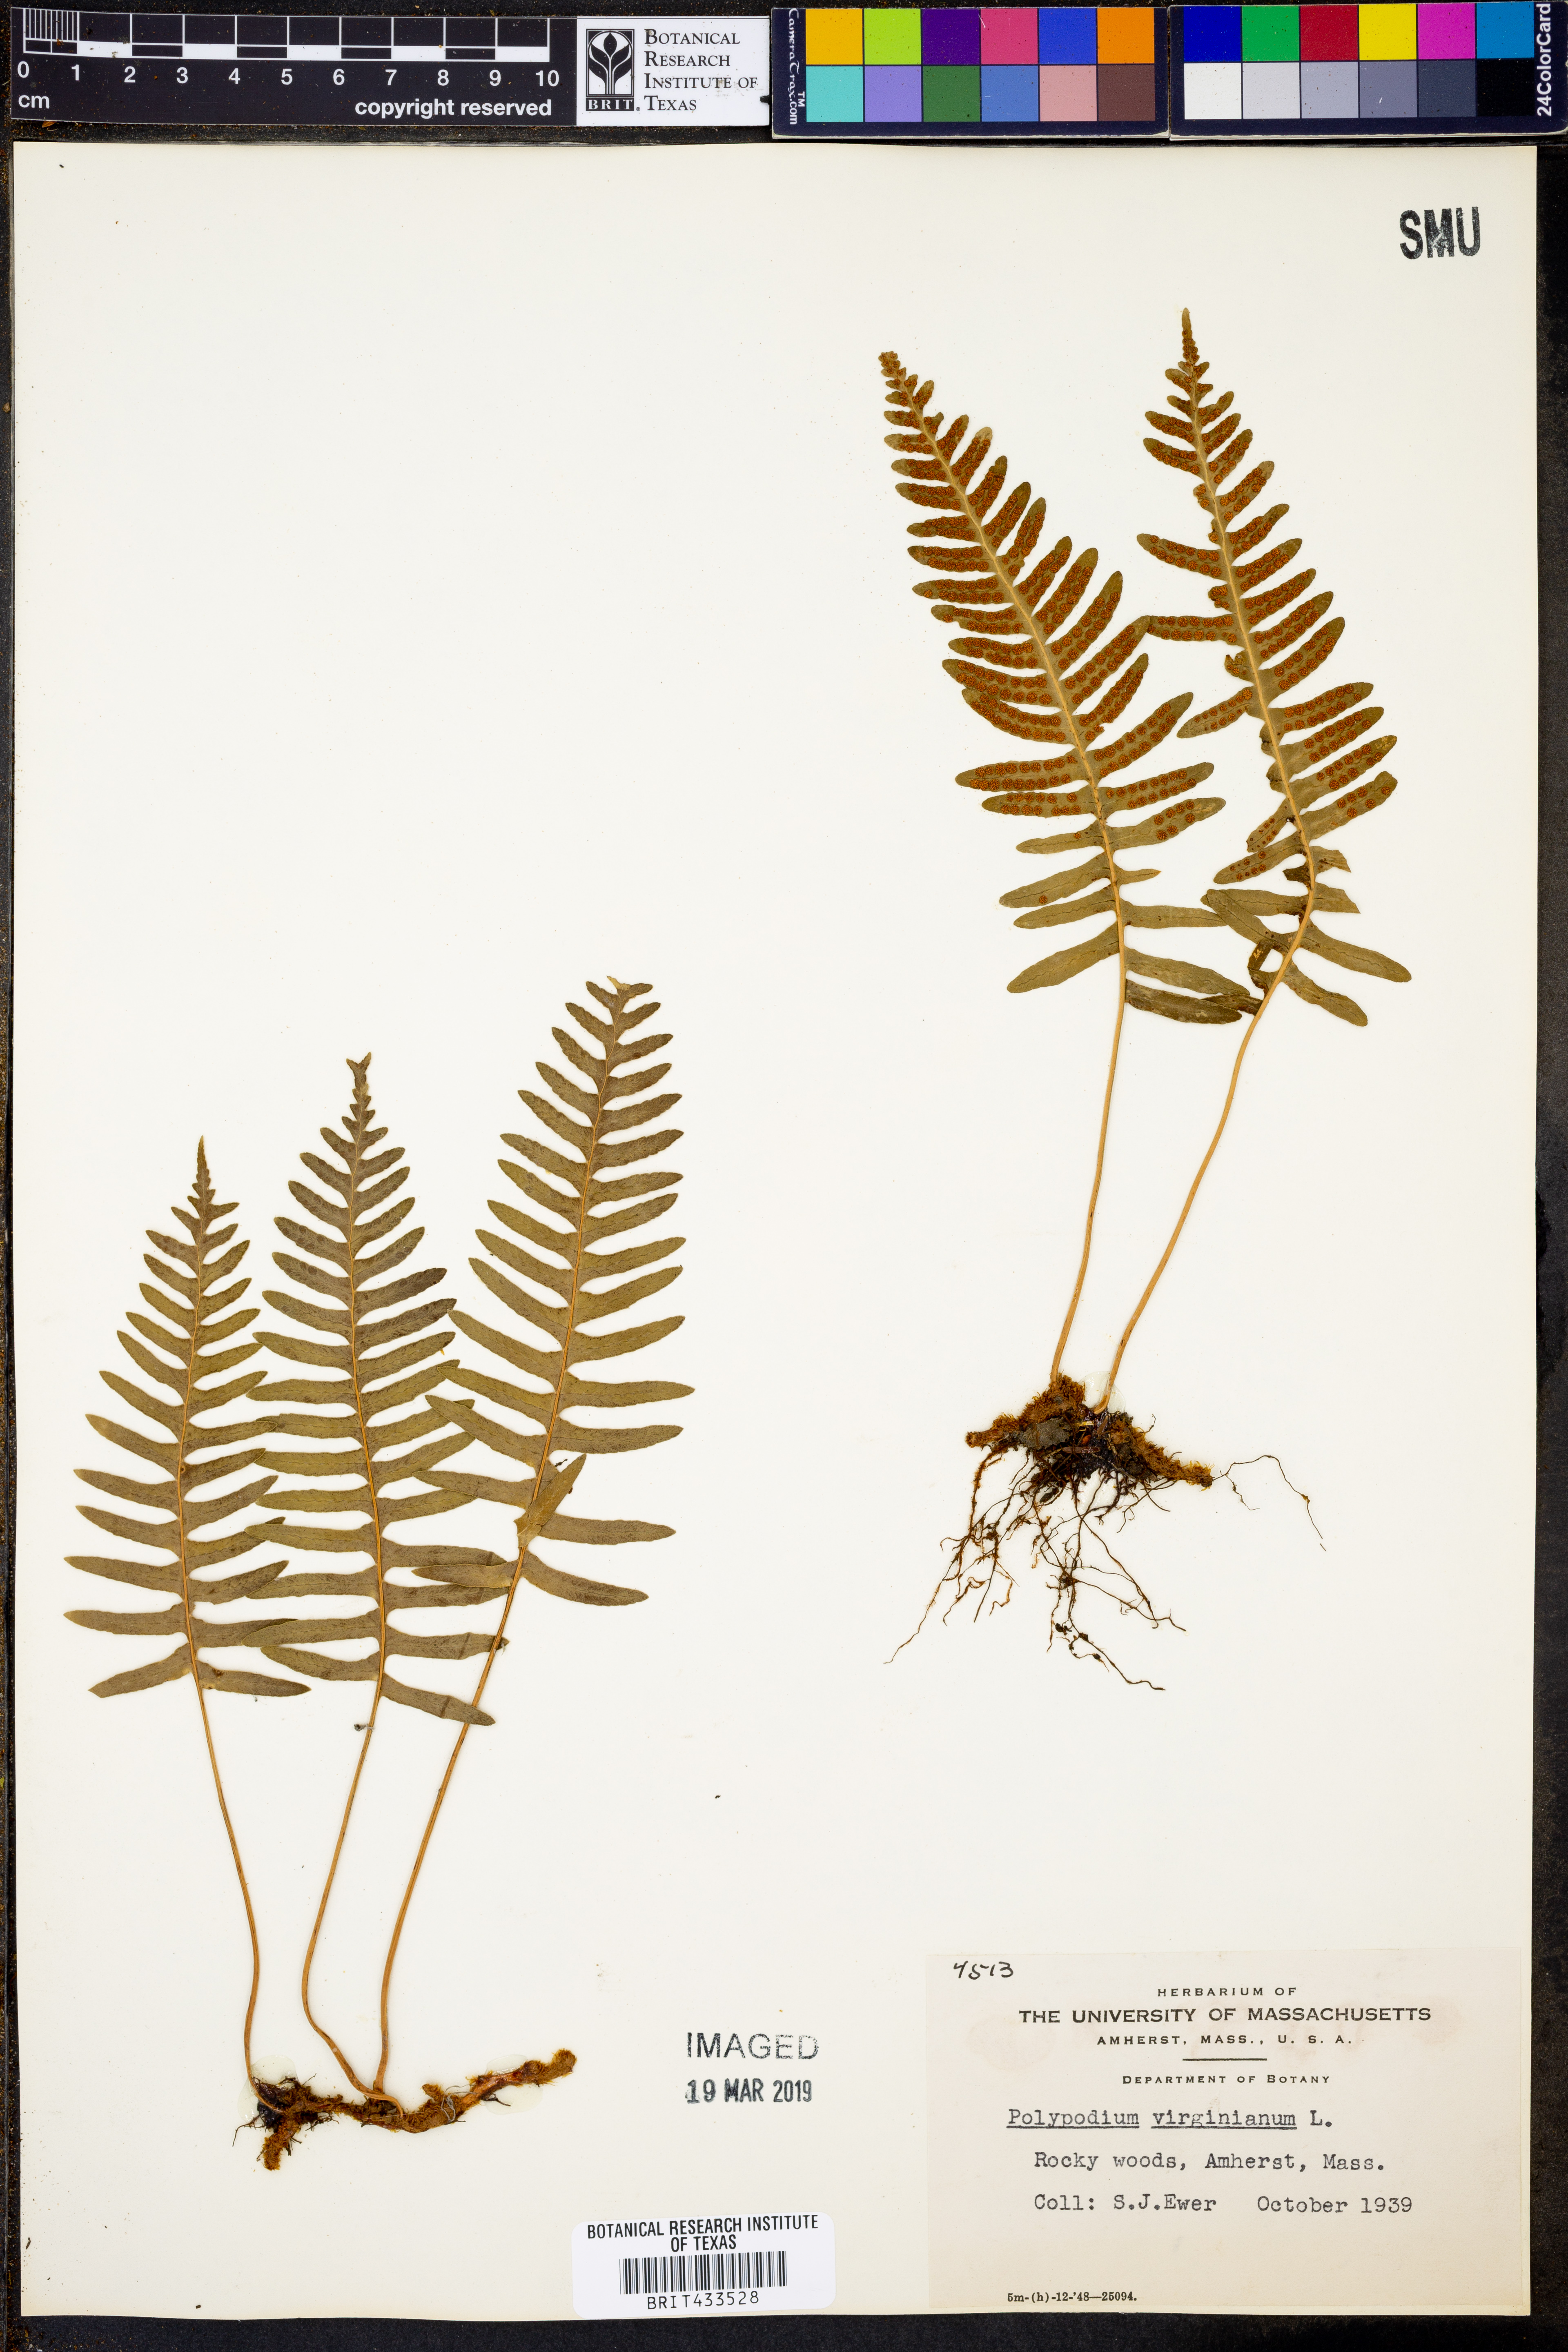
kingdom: Plantae
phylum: Tracheophyta
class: Polypodiopsida
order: Polypodiales
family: Polypodiaceae
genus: Polypodium
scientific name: Polypodium virginianum
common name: American wall fern
